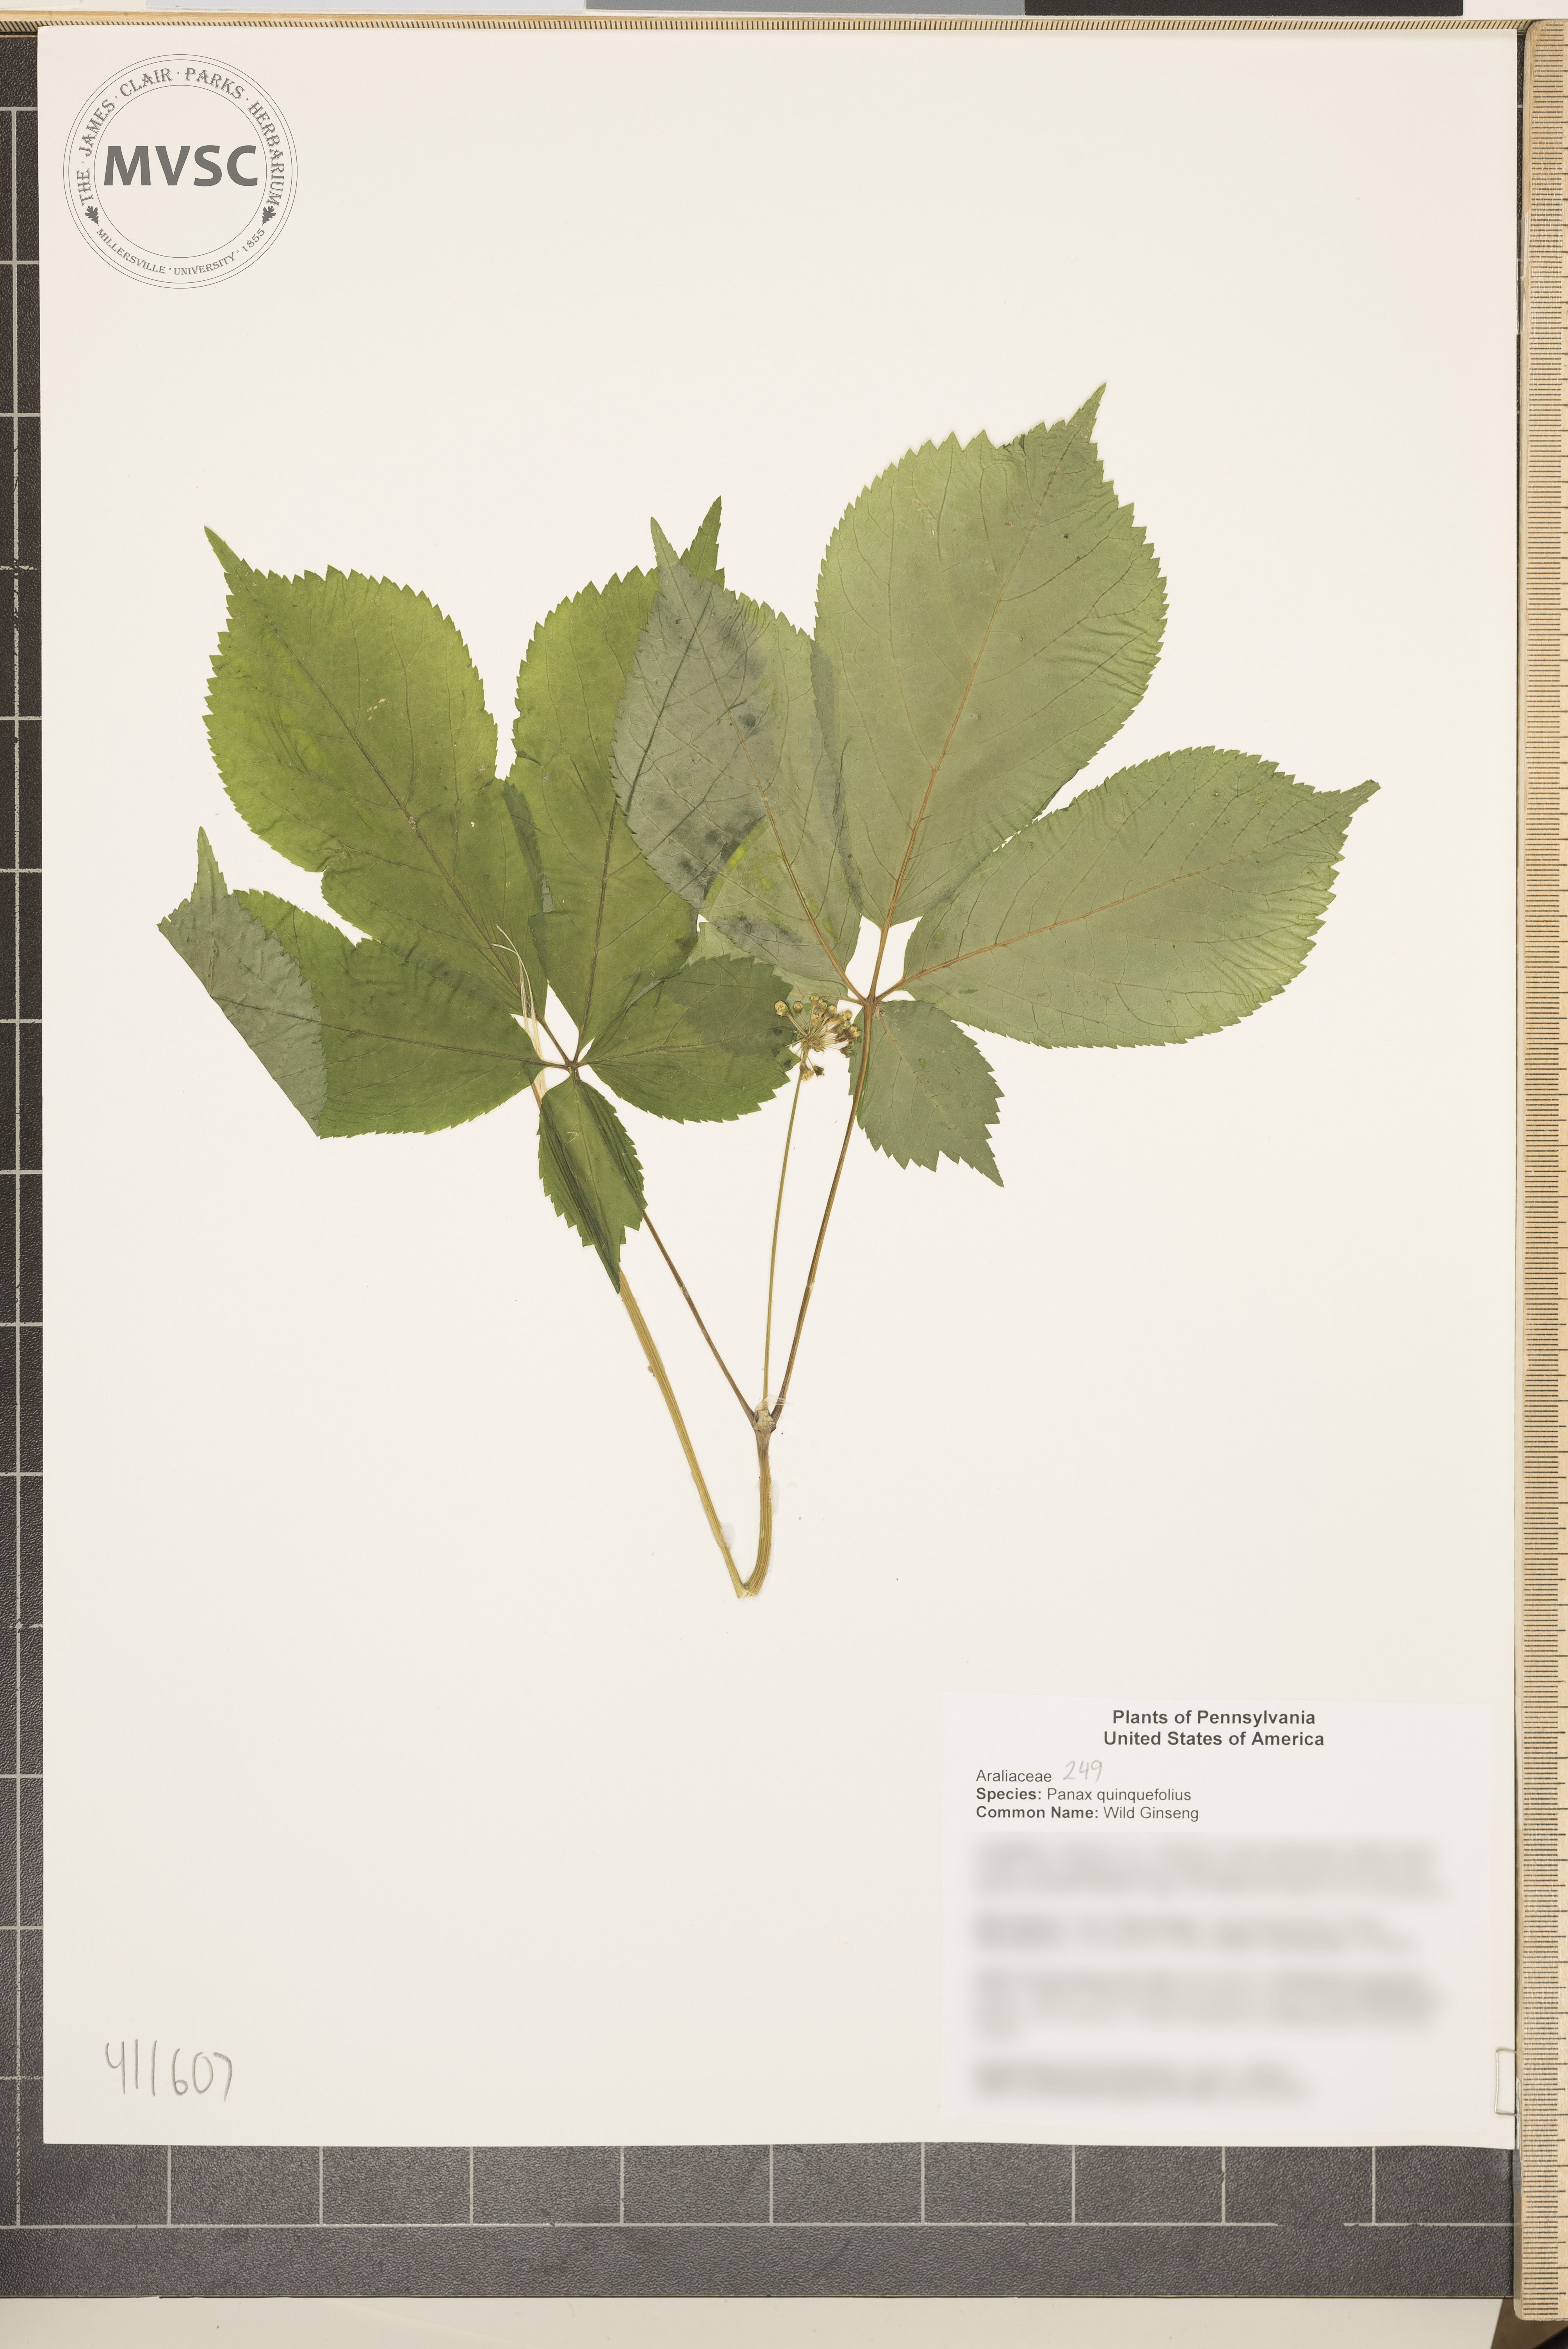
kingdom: Plantae
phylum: Tracheophyta
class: Magnoliopsida
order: Apiales
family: Araliaceae
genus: Panax
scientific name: Panax quinquefolius
